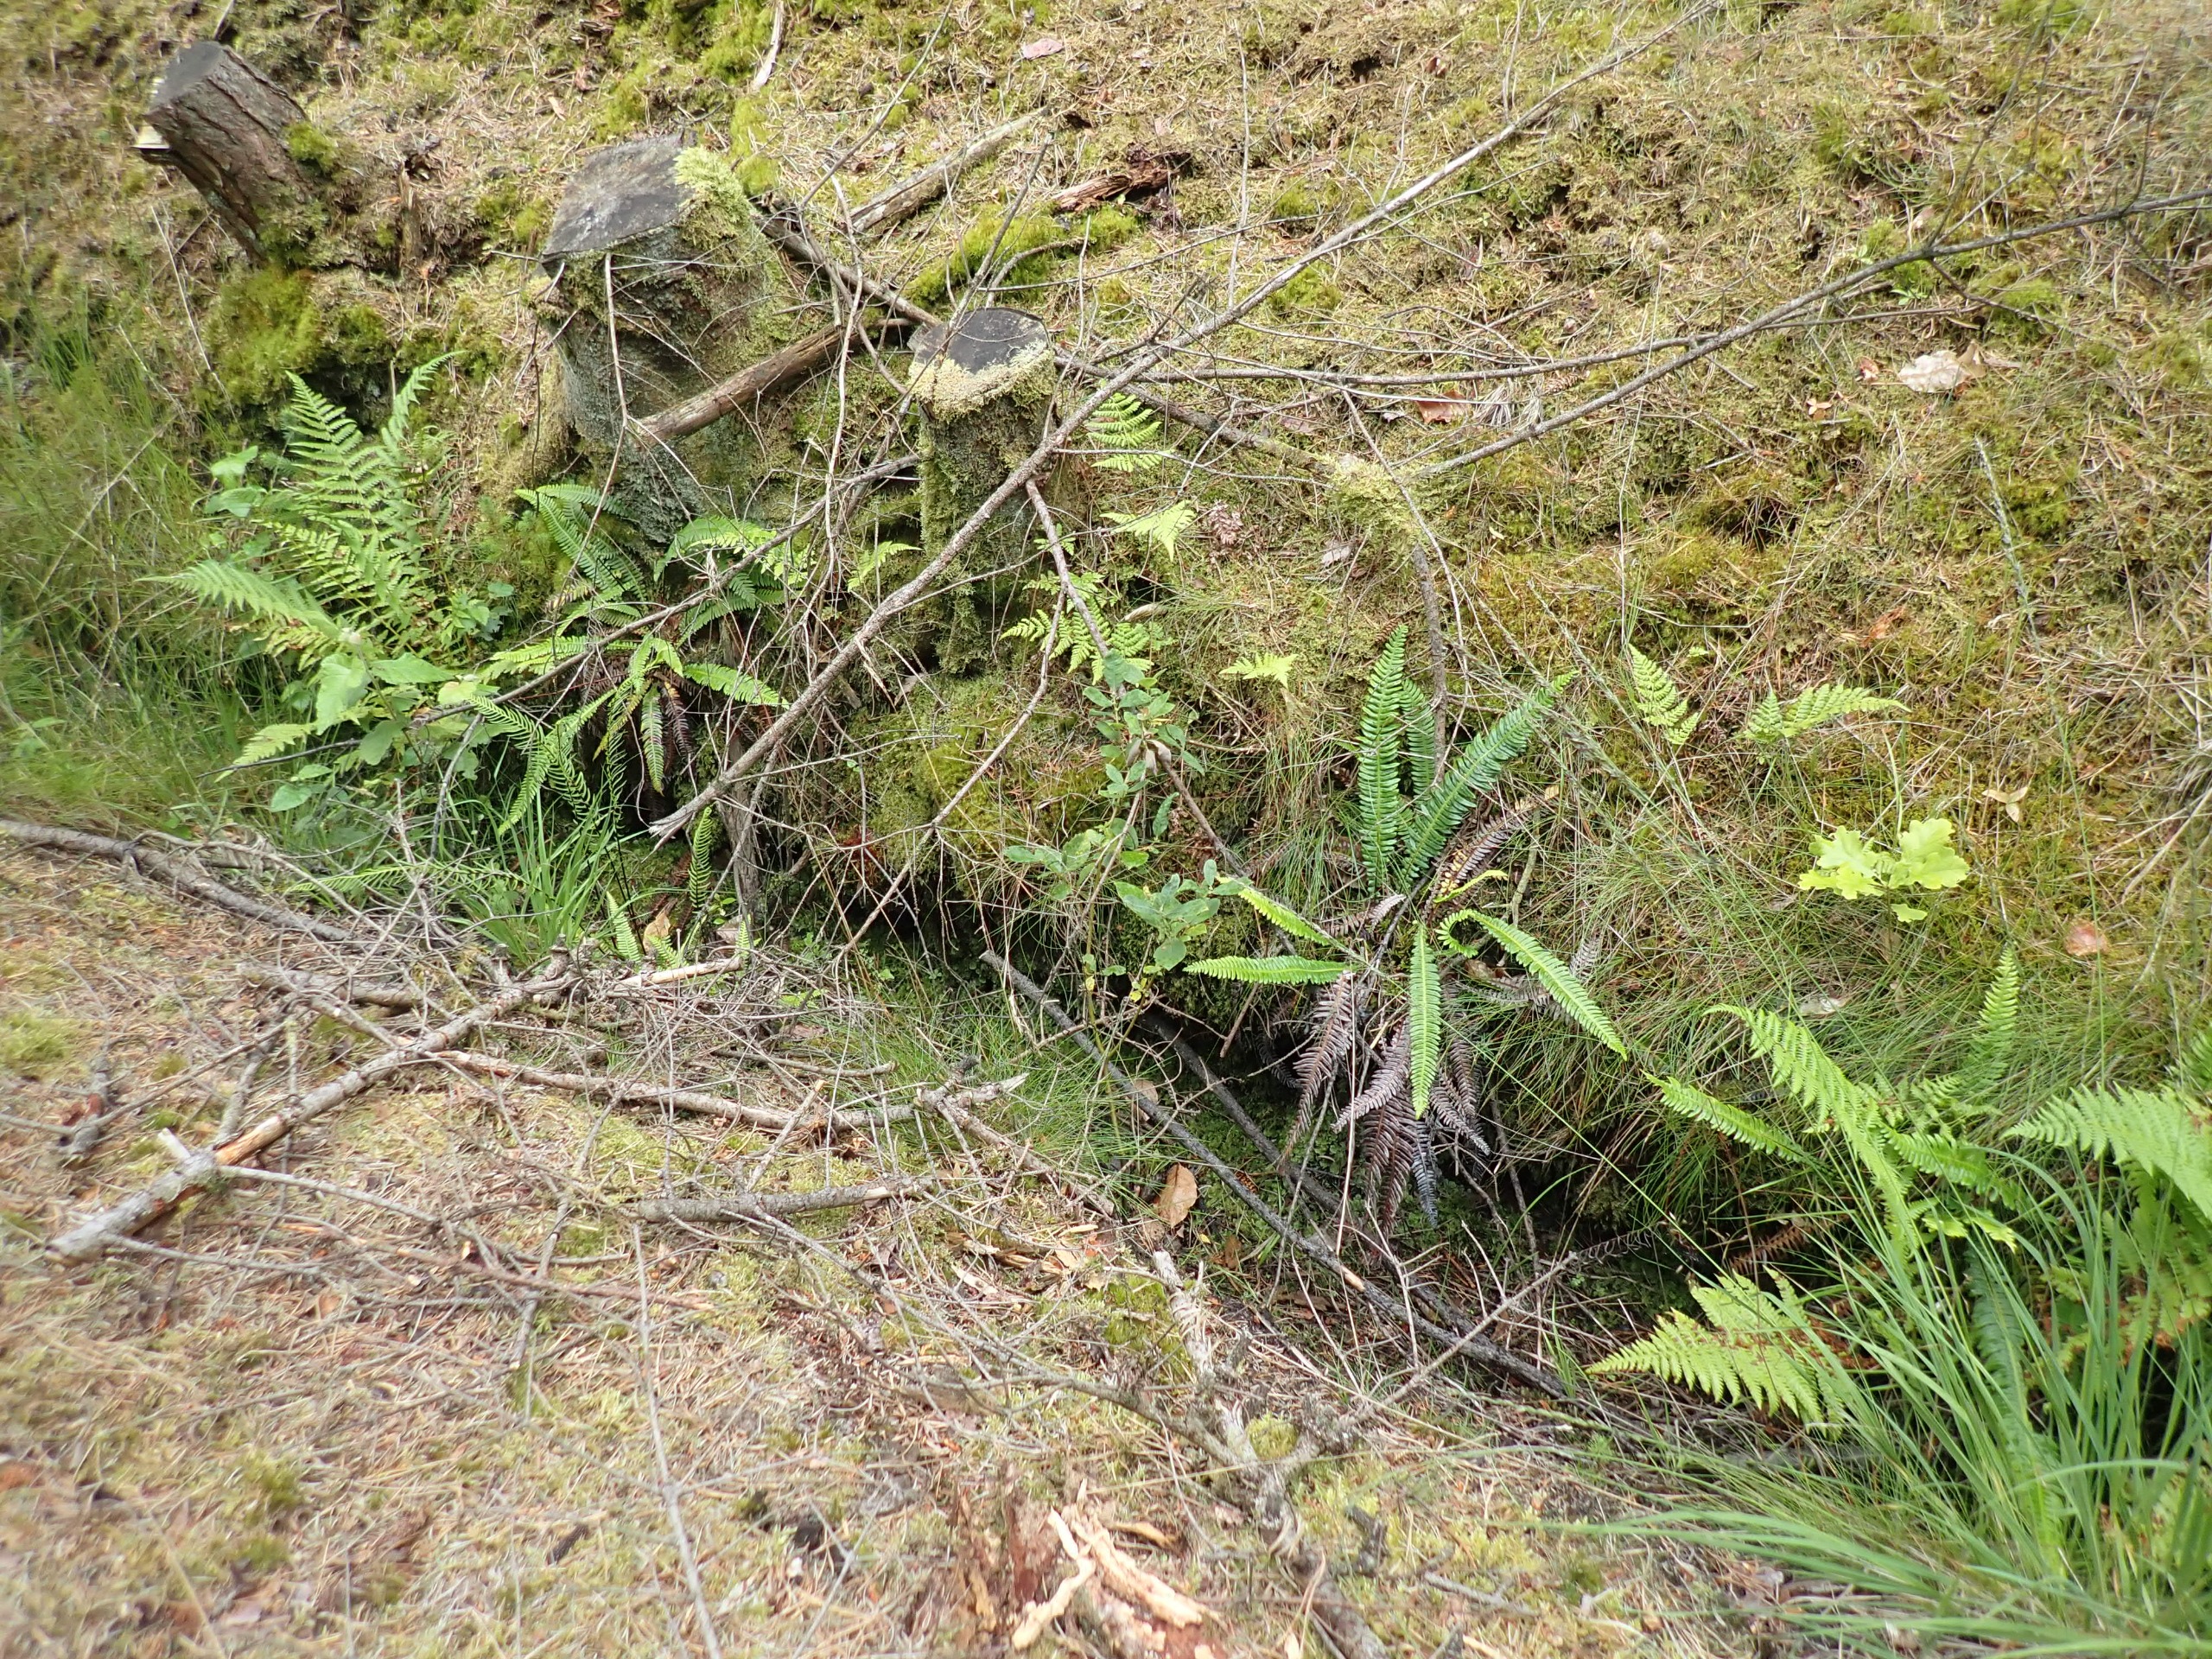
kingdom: Plantae
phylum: Tracheophyta
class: Polypodiopsida
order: Polypodiales
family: Blechnaceae
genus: Struthiopteris
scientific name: Struthiopteris spicant
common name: Kambregne
